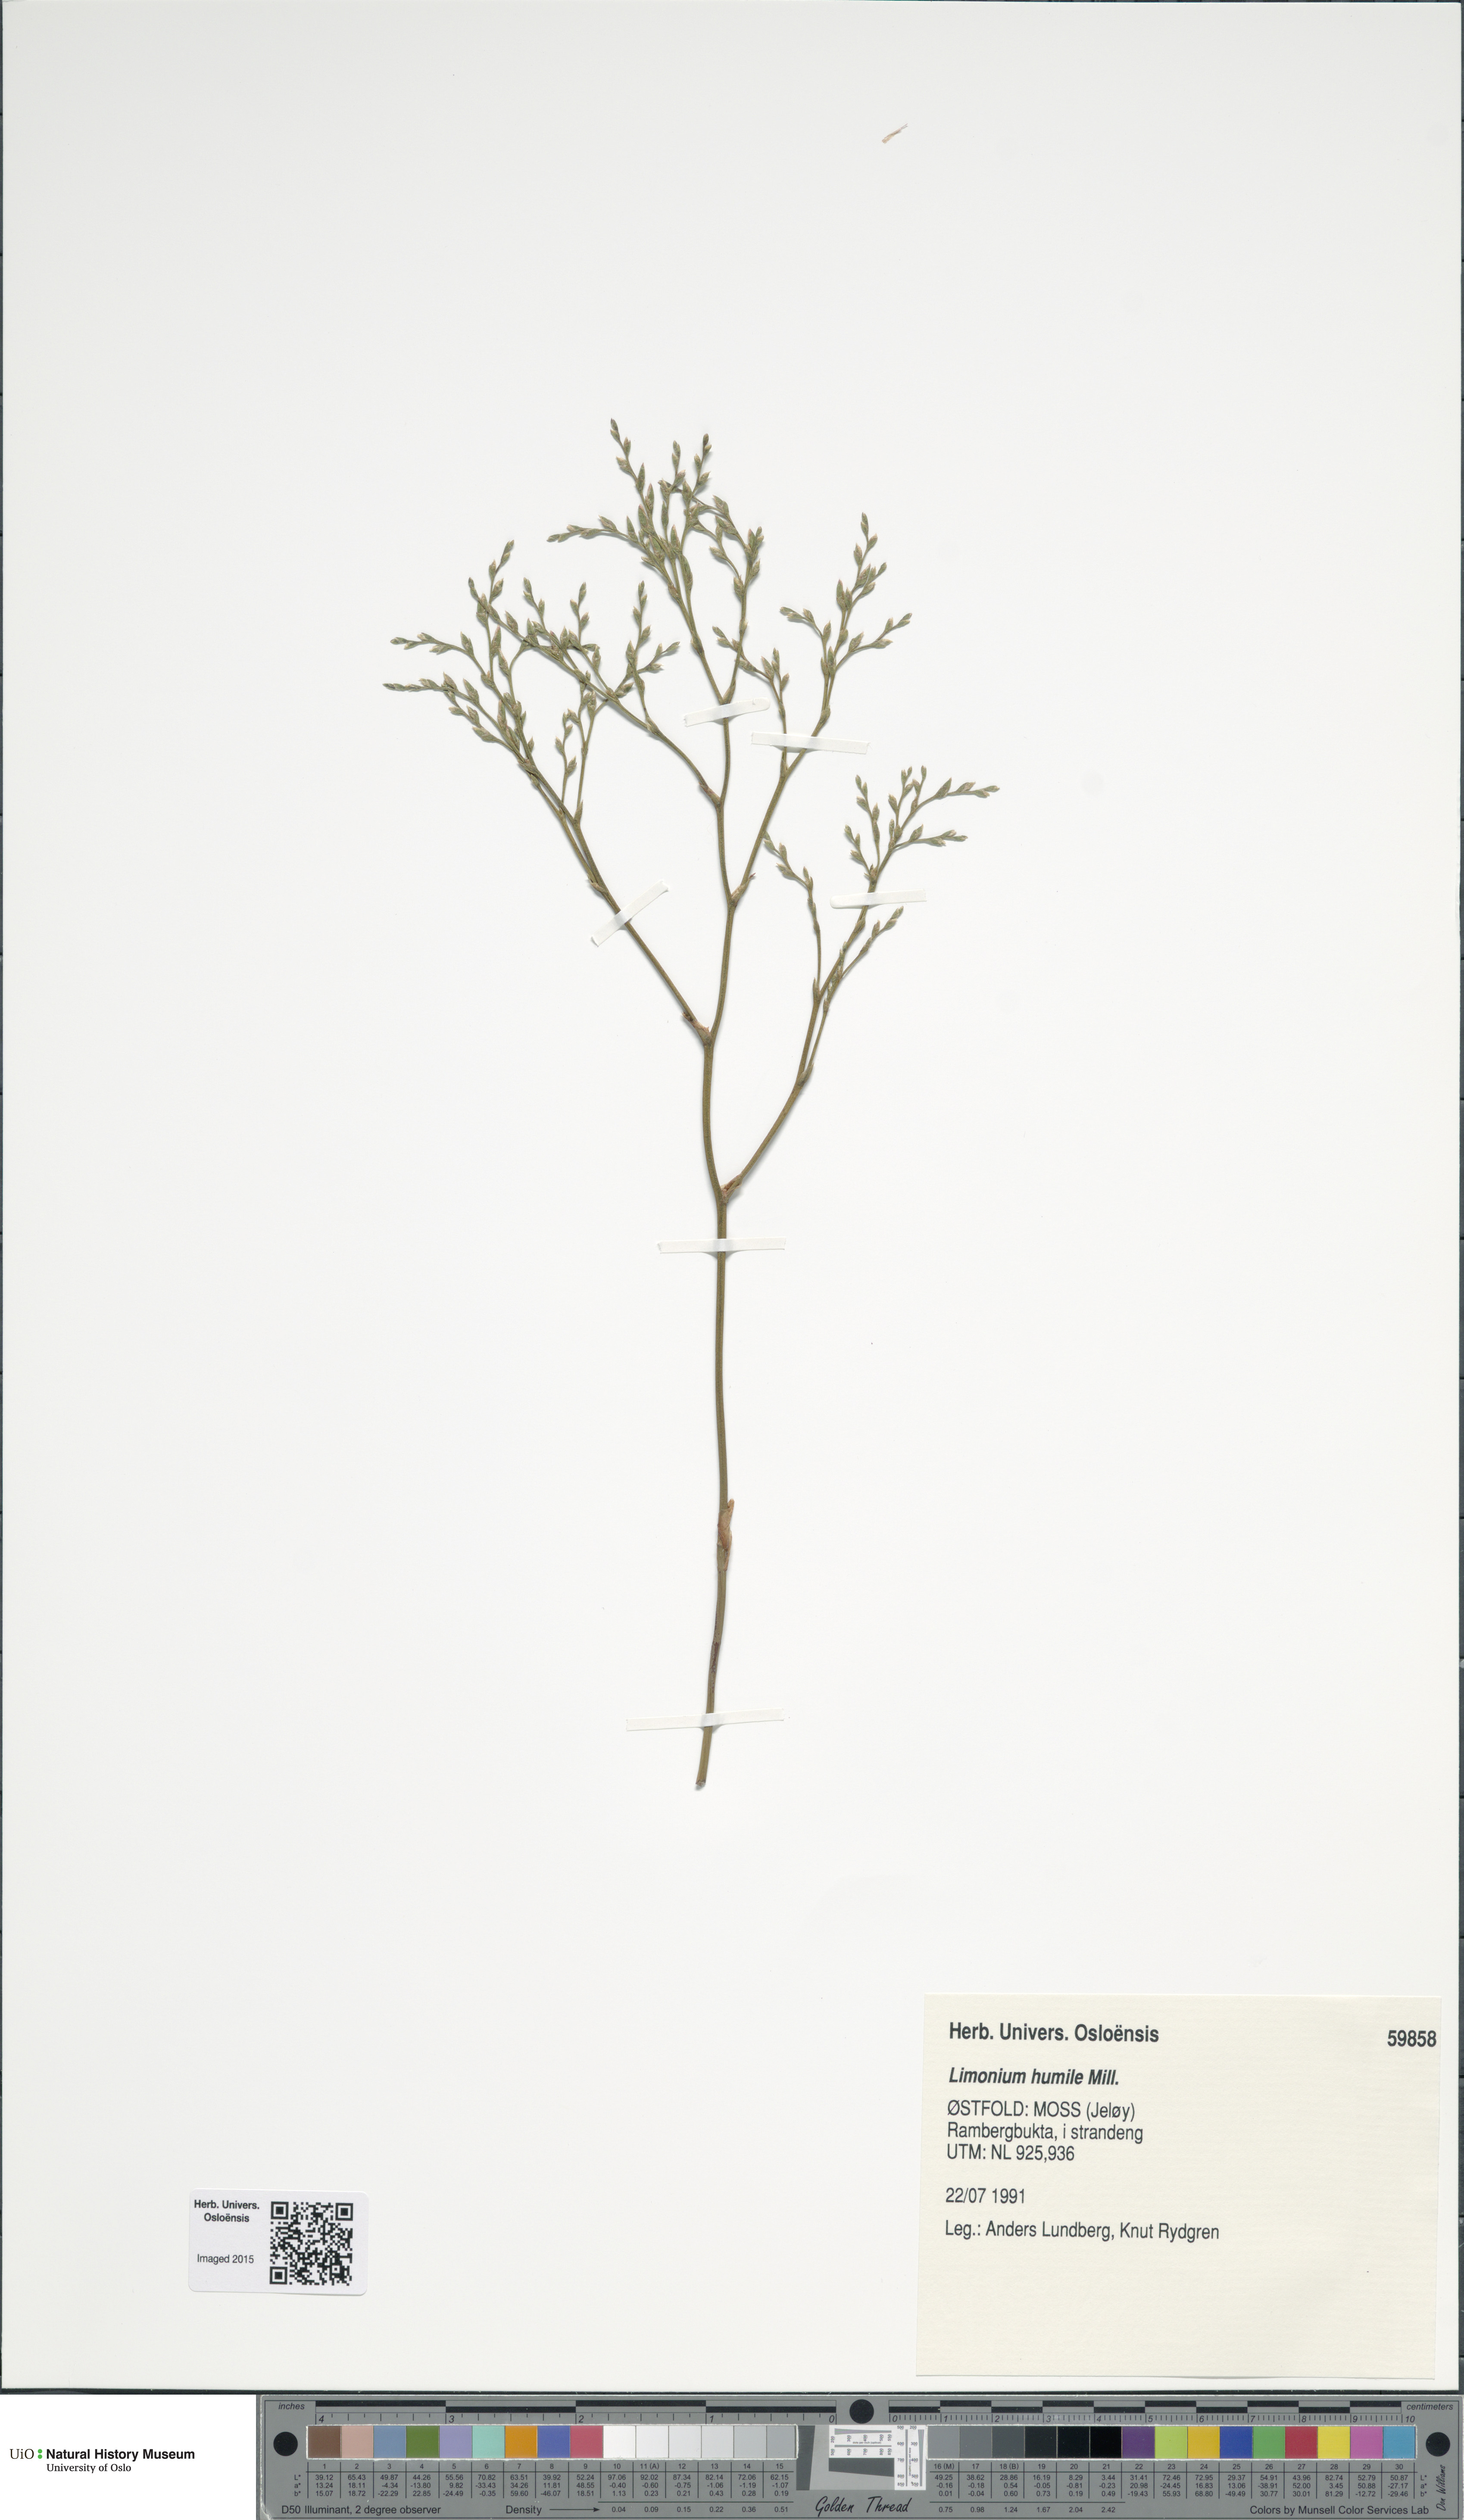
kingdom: Plantae
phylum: Tracheophyta
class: Magnoliopsida
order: Caryophyllales
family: Plumbaginaceae
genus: Limonium
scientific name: Limonium humile
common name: Lax-flowered sea-lavender
